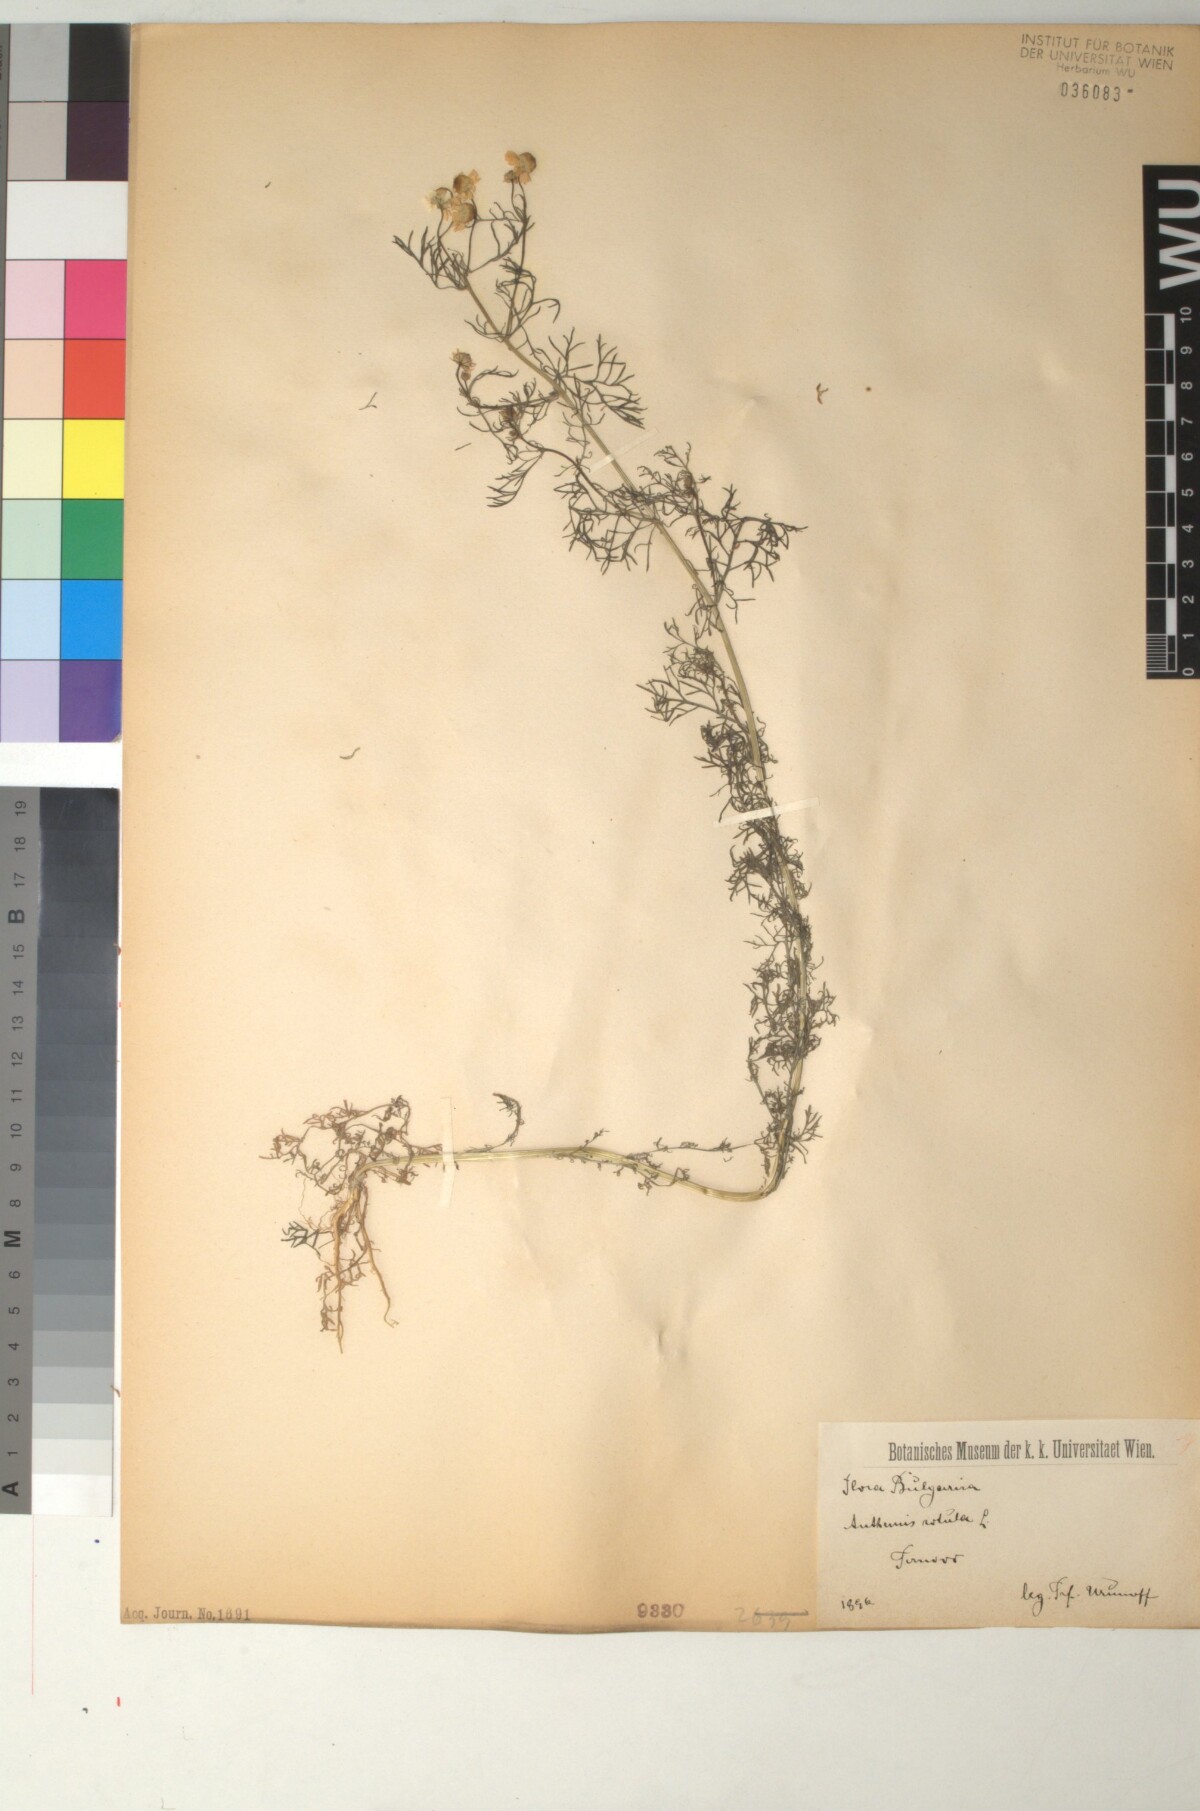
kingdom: Plantae
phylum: Tracheophyta
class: Magnoliopsida
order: Asterales
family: Asteraceae
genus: Anthemis
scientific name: Anthemis cotula
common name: Stinking chamomile
